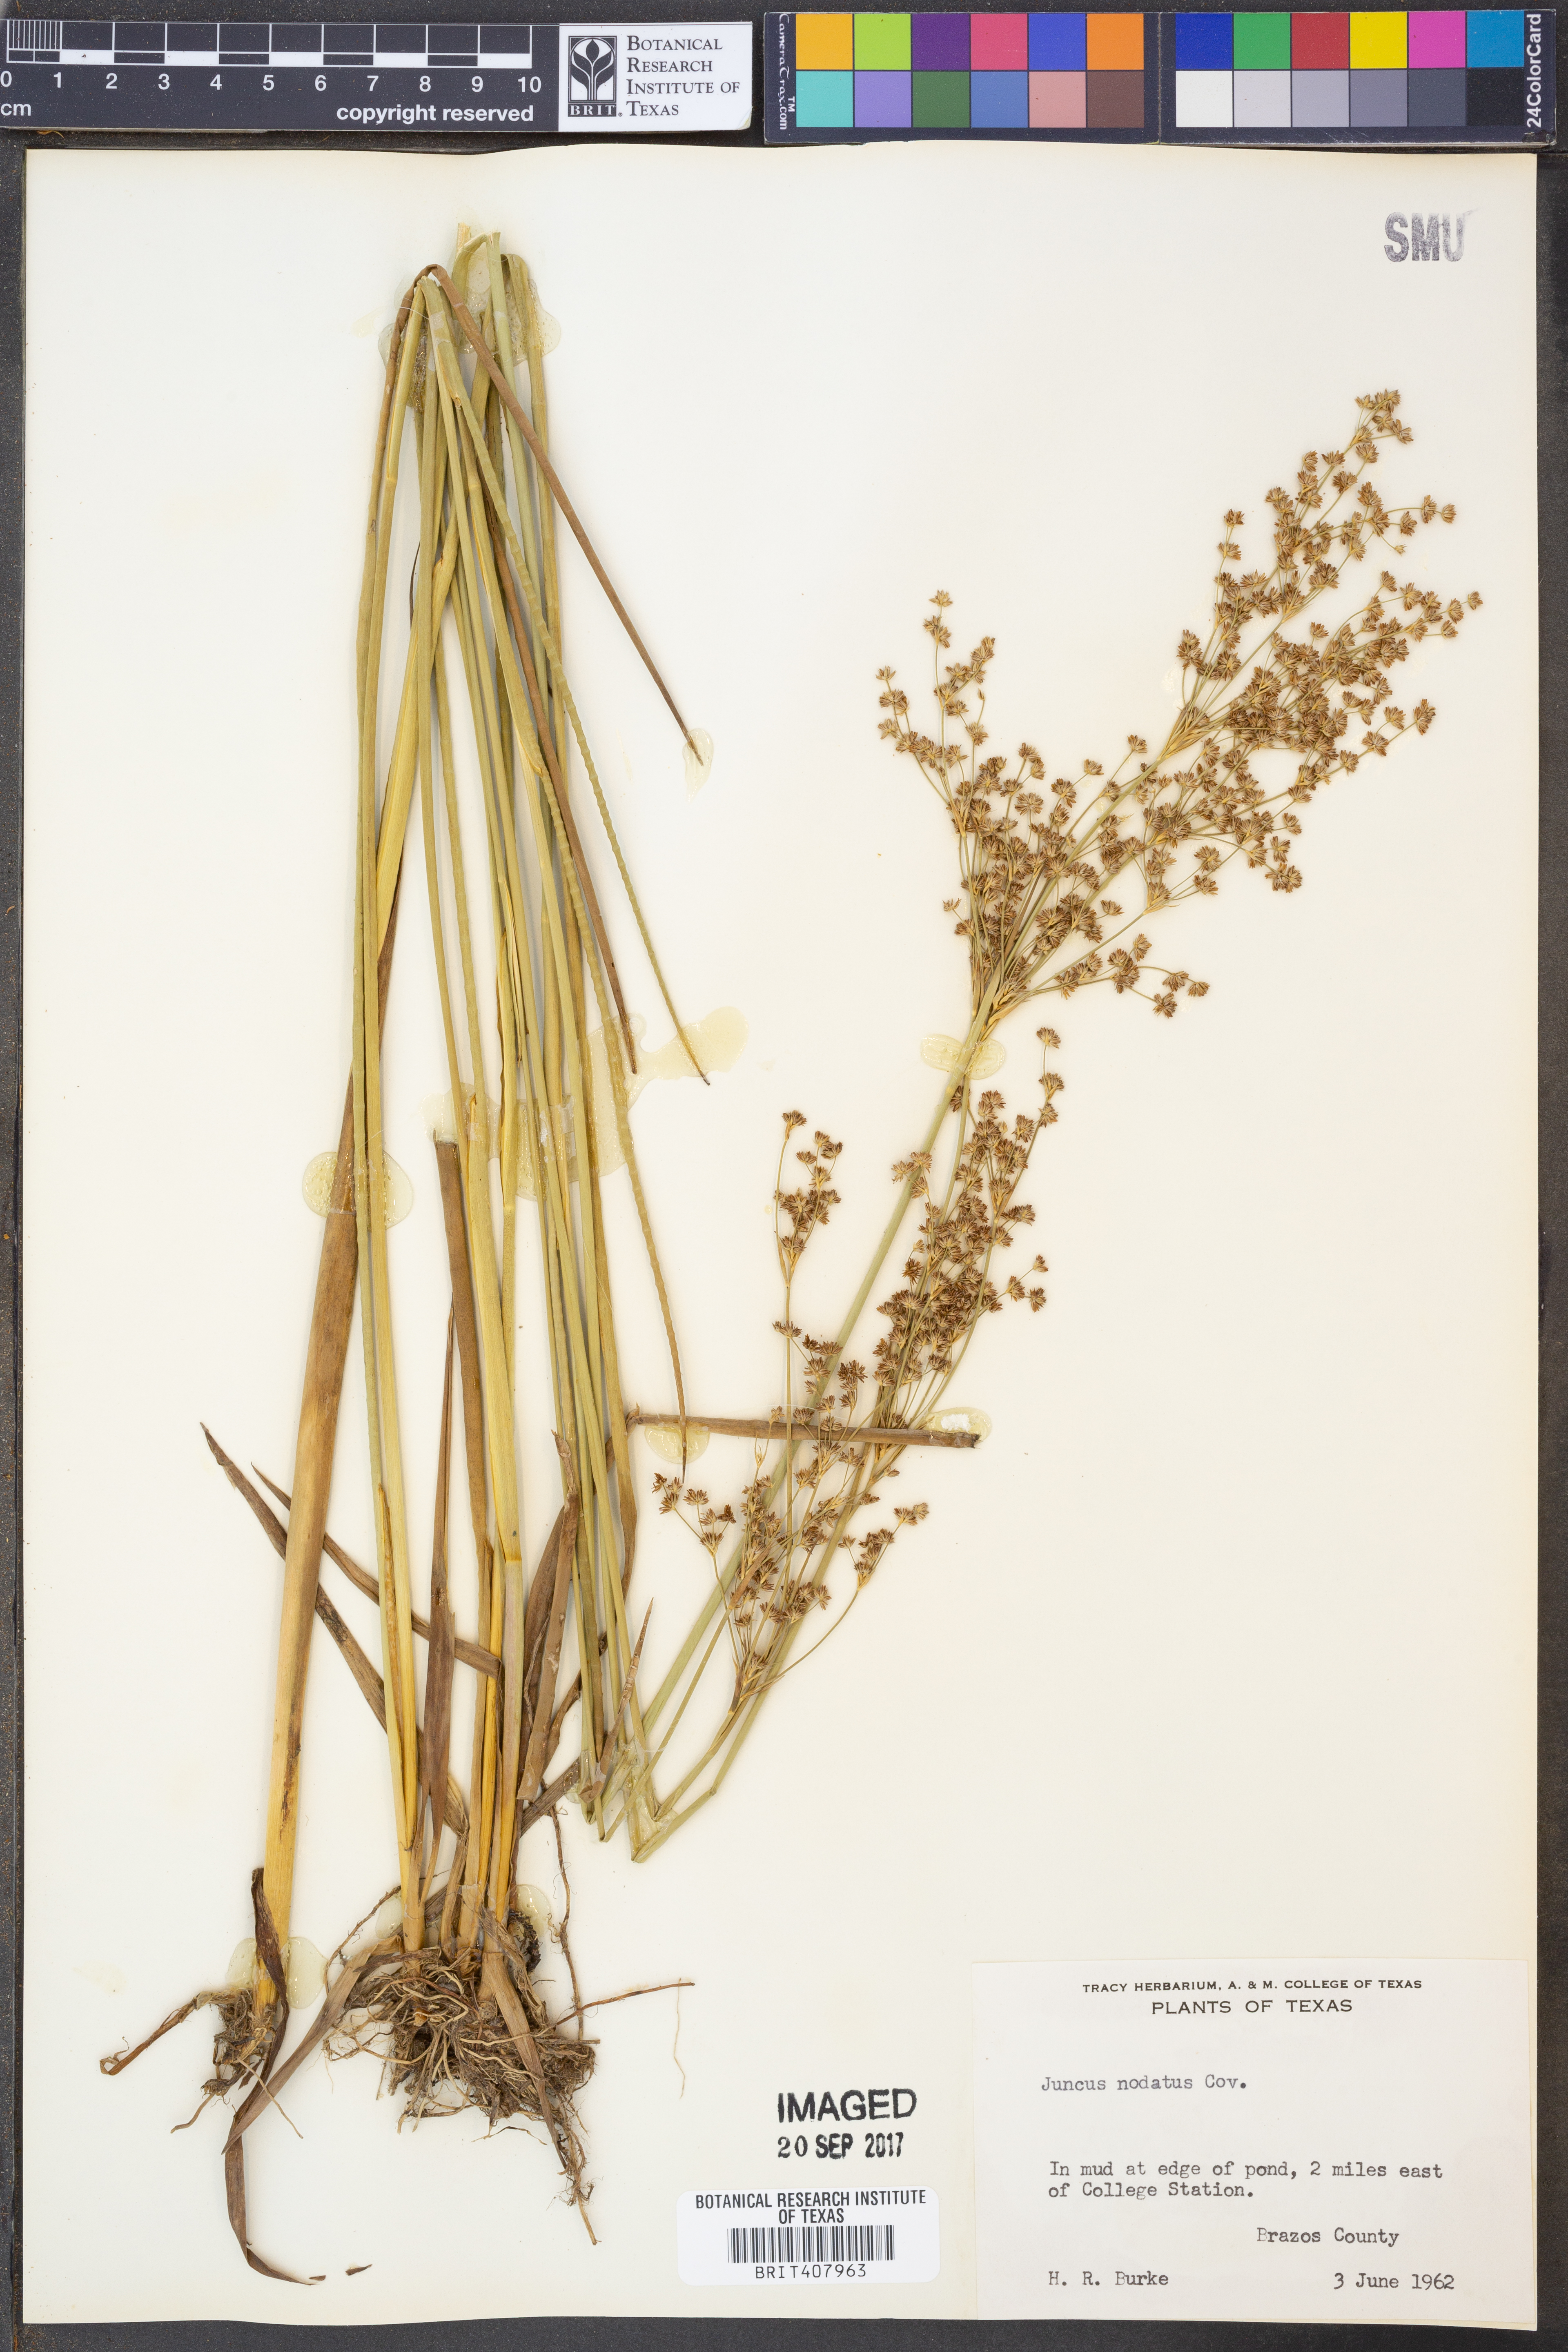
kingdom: Plantae
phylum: Tracheophyta
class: Liliopsida
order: Poales
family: Juncaceae
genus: Juncus
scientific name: Juncus nodatus
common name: Stout rush
